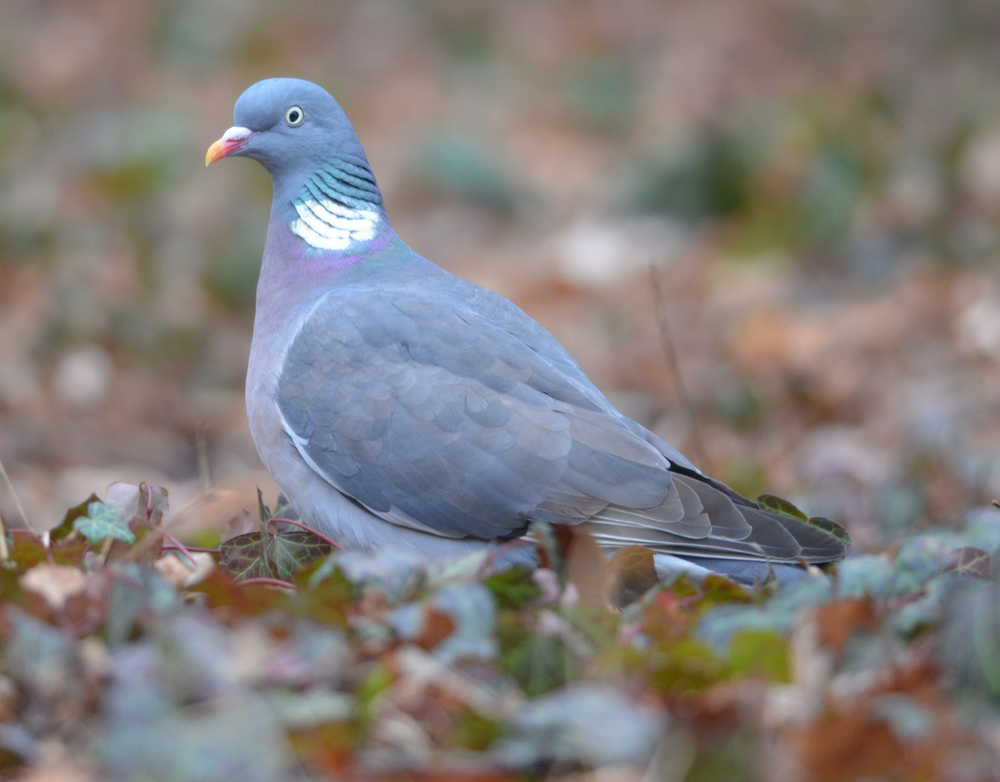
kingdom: Animalia
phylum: Chordata
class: Aves
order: Columbiformes
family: Columbidae
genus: Columba
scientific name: Columba palumbus
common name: Common wood pigeon
